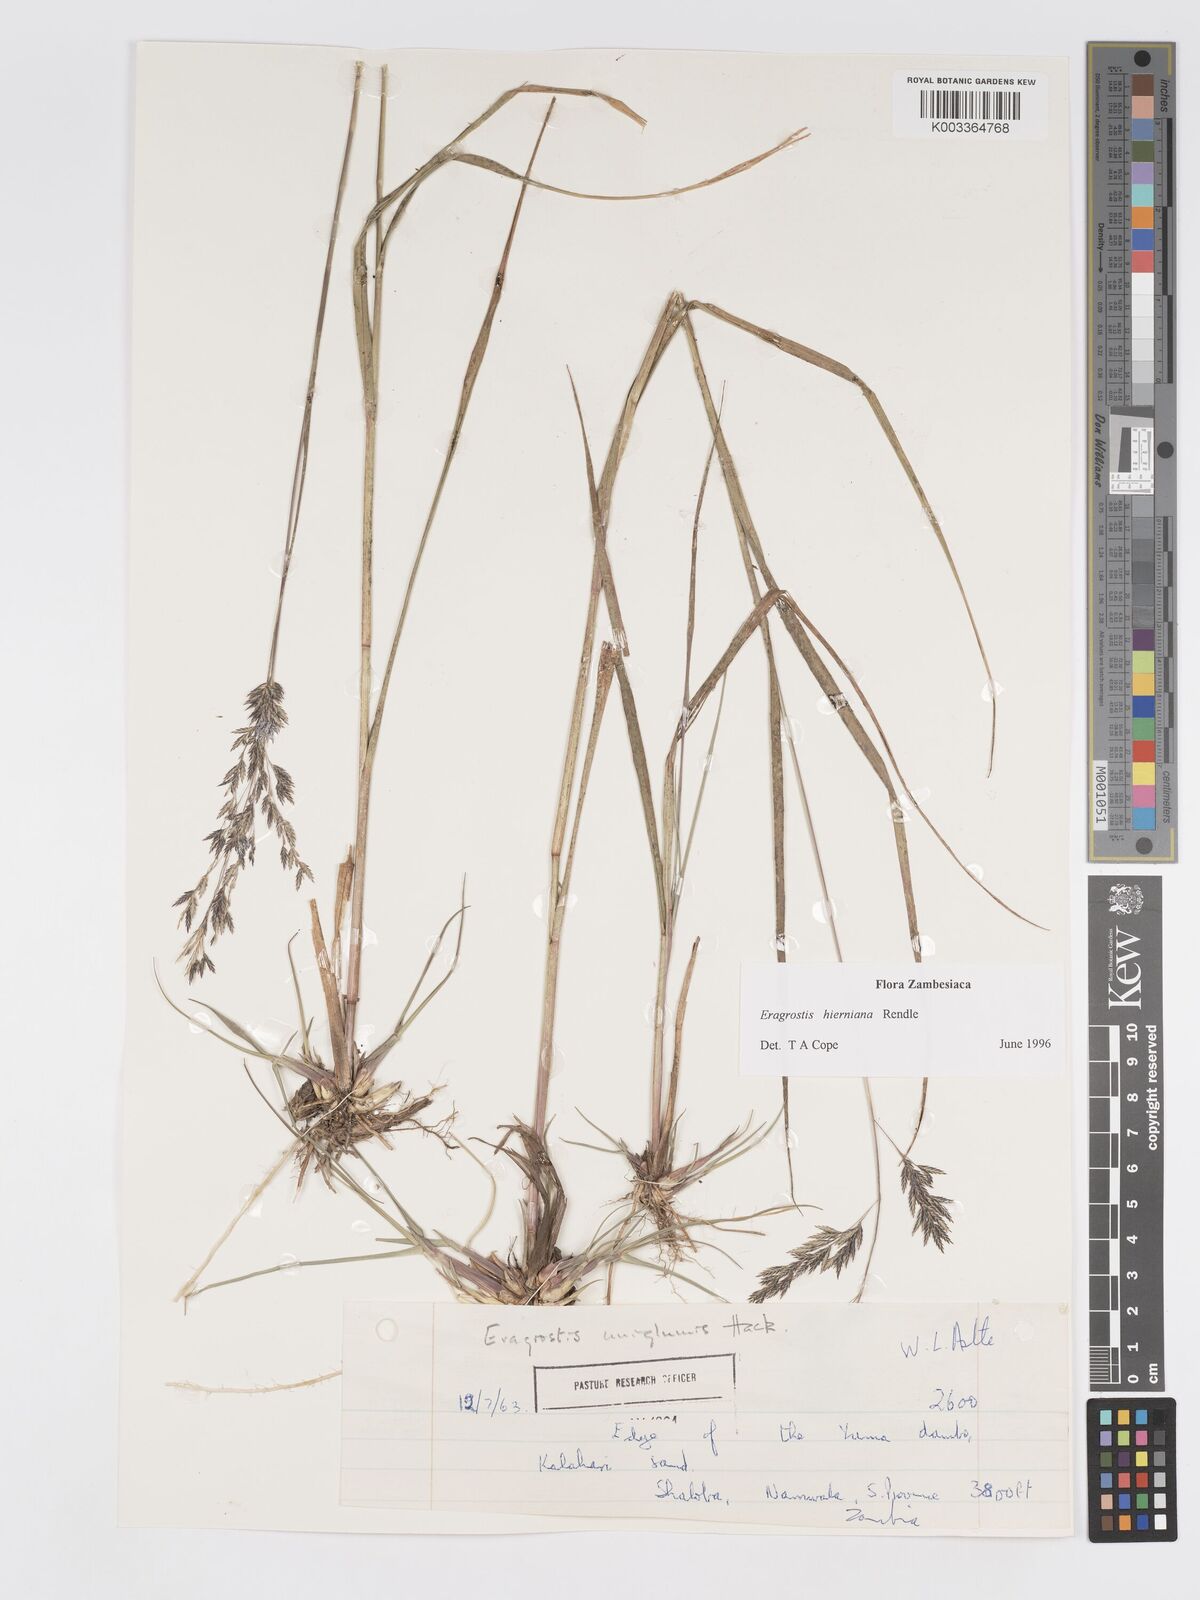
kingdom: Plantae
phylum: Tracheophyta
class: Liliopsida
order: Poales
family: Poaceae
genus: Eragrostis
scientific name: Eragrostis hierniana
